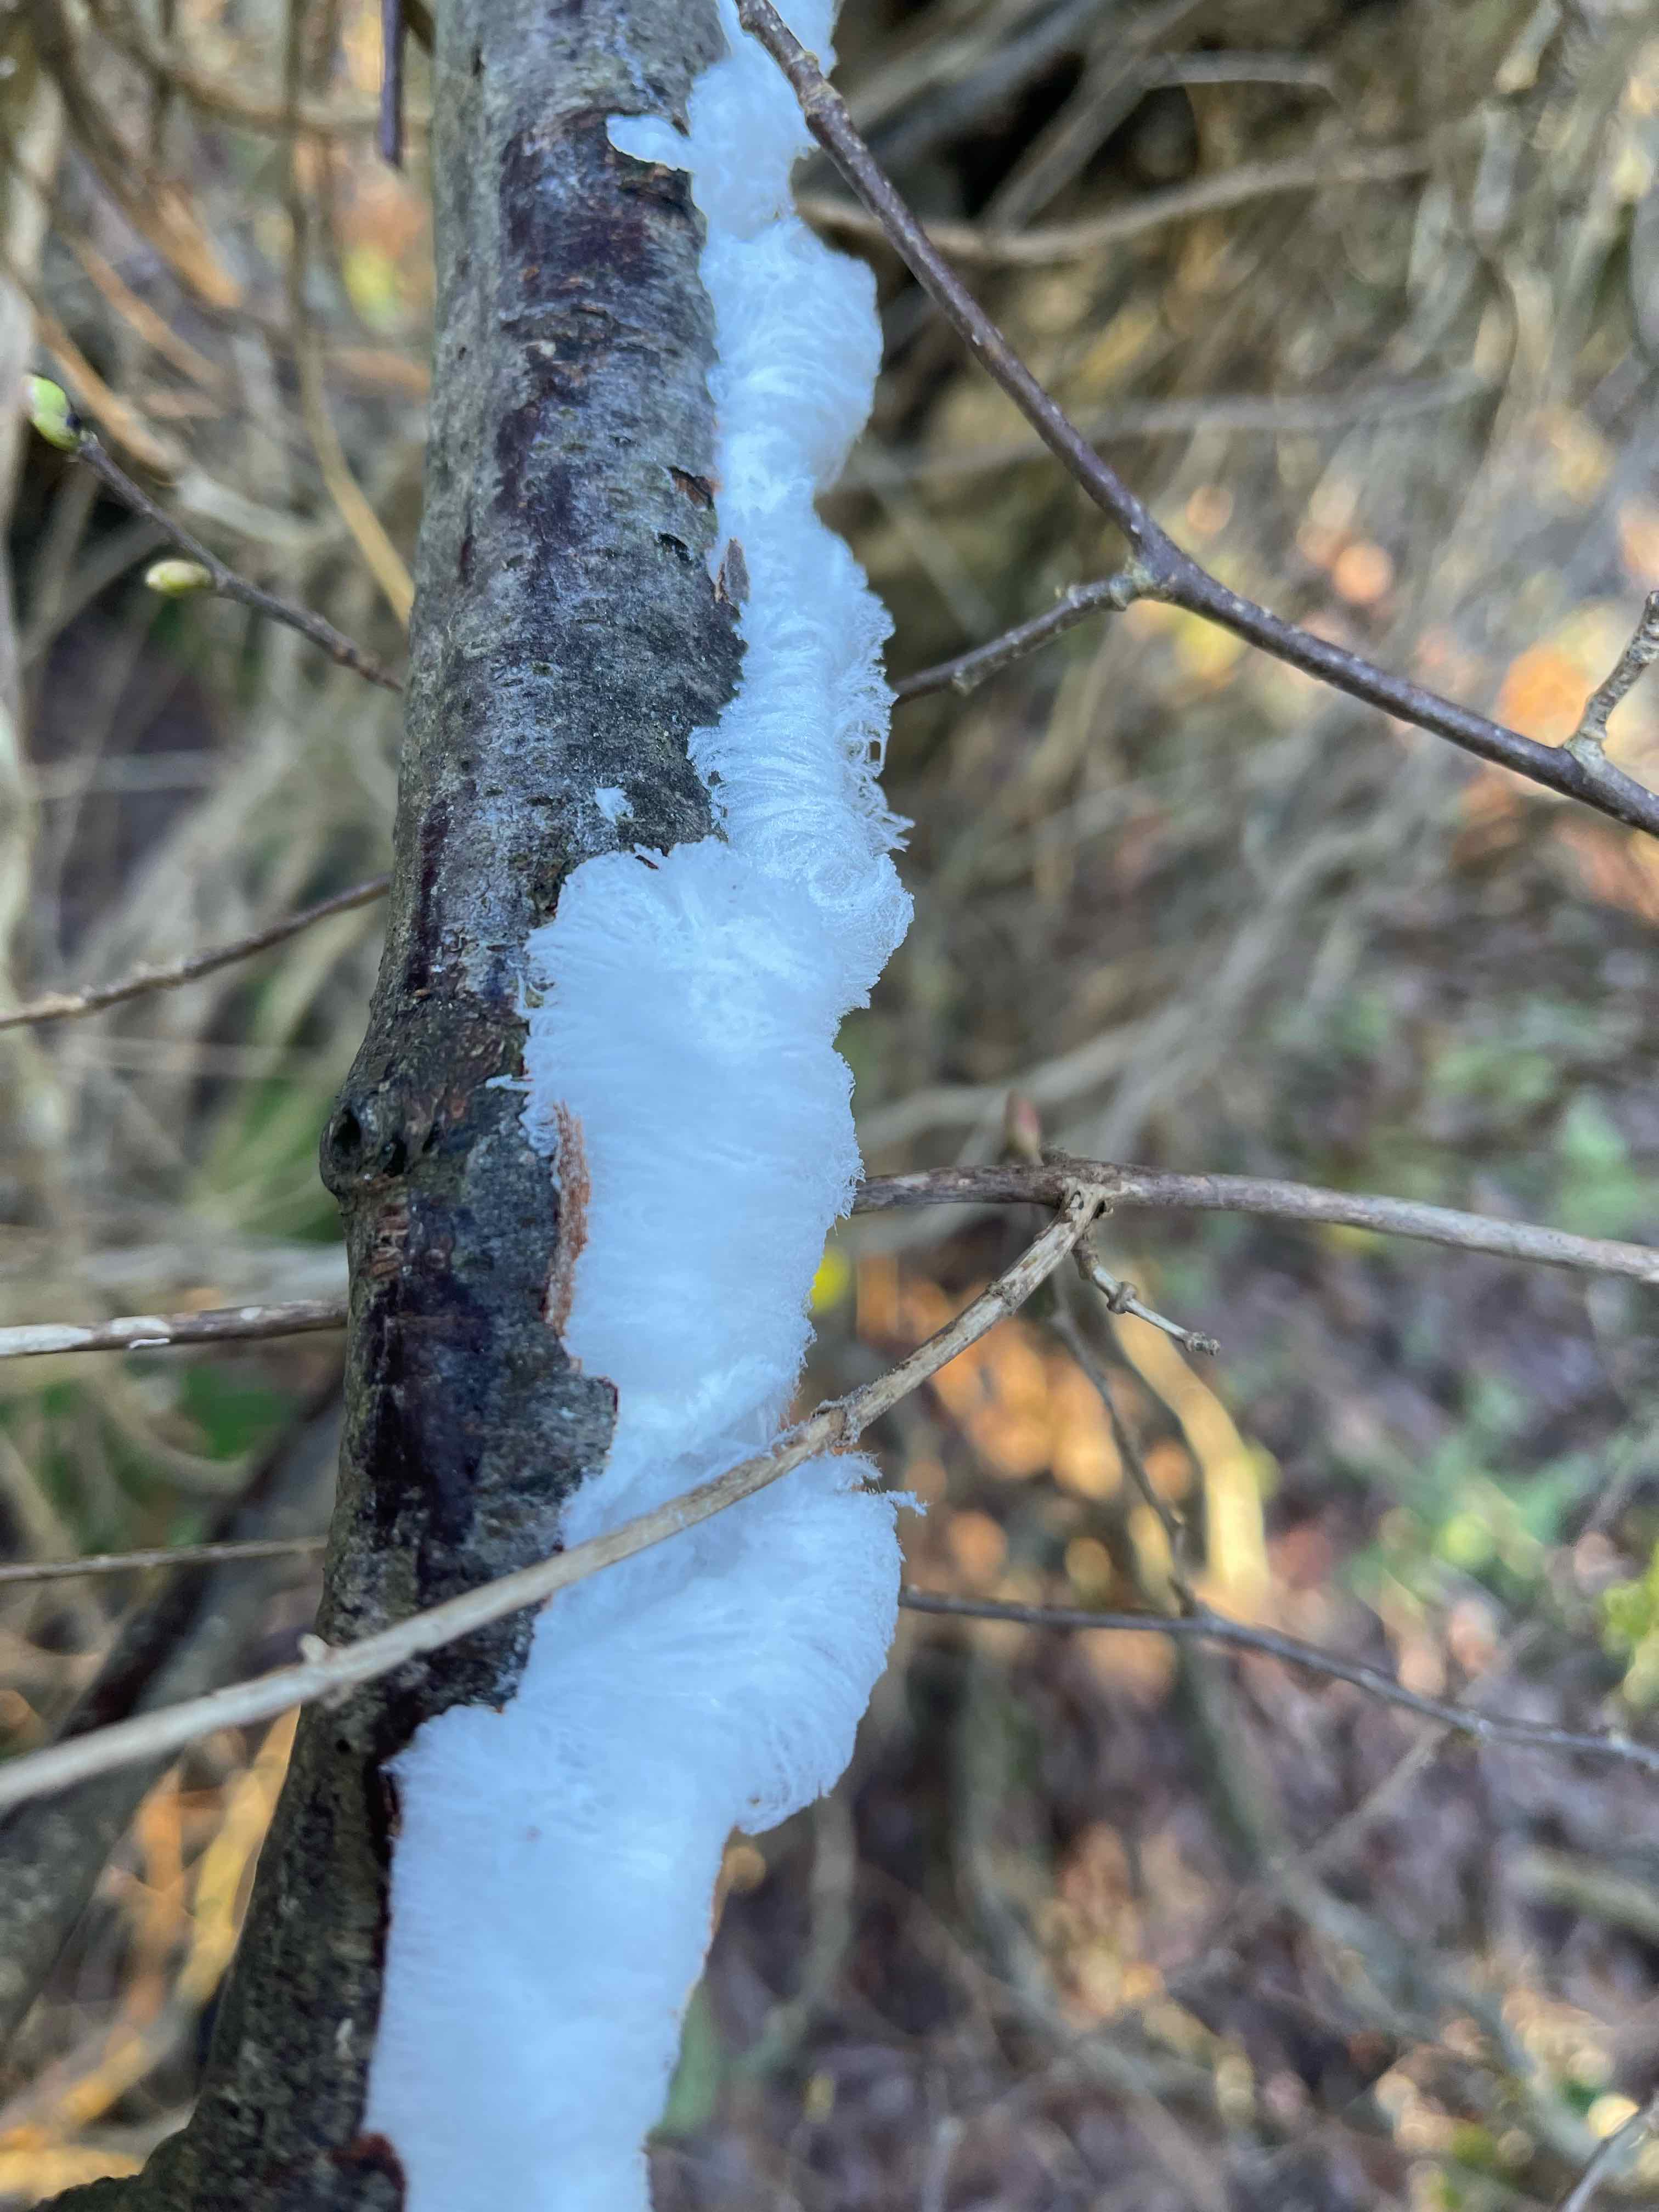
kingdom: Fungi
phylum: Basidiomycota
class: Tremellomycetes
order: Tremellales
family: Exidiaceae
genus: Exidiopsis
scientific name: Exidiopsis effusa
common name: smuk bævrehinde
